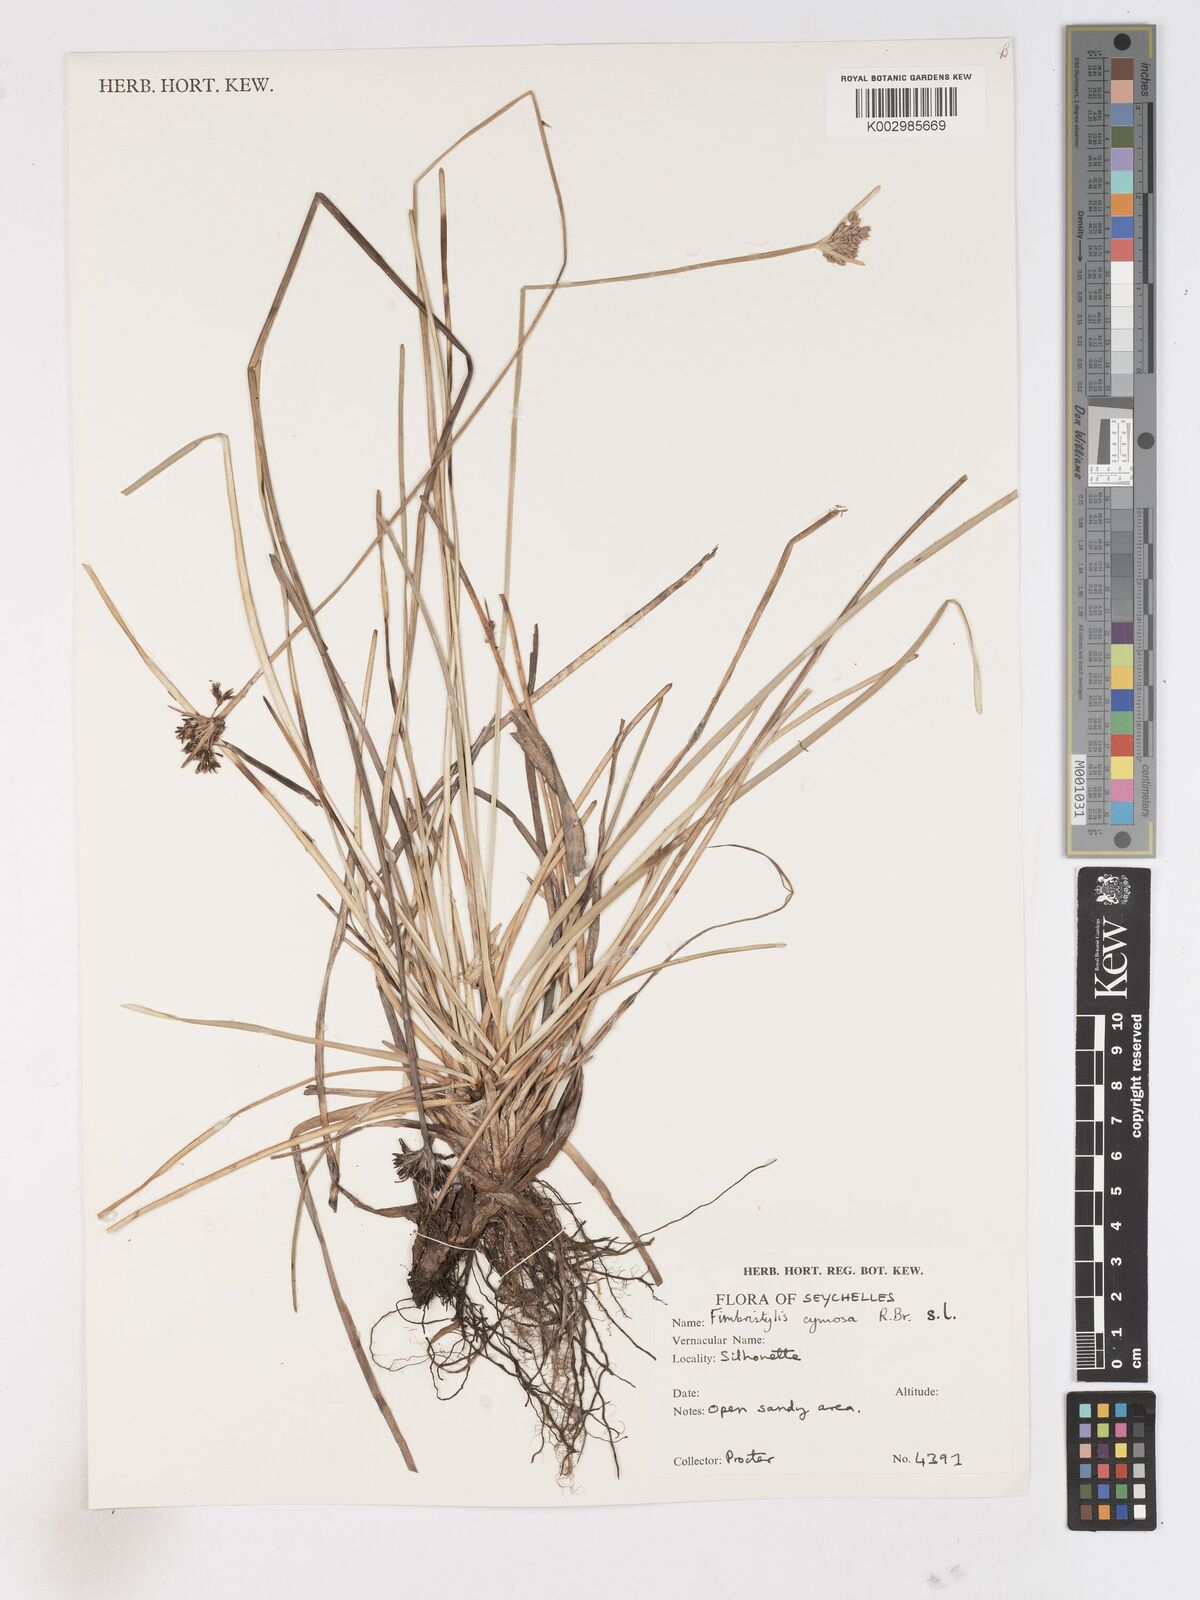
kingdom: Plantae
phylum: Tracheophyta
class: Liliopsida
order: Poales
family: Cyperaceae
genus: Fimbristylis
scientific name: Fimbristylis cymosa
